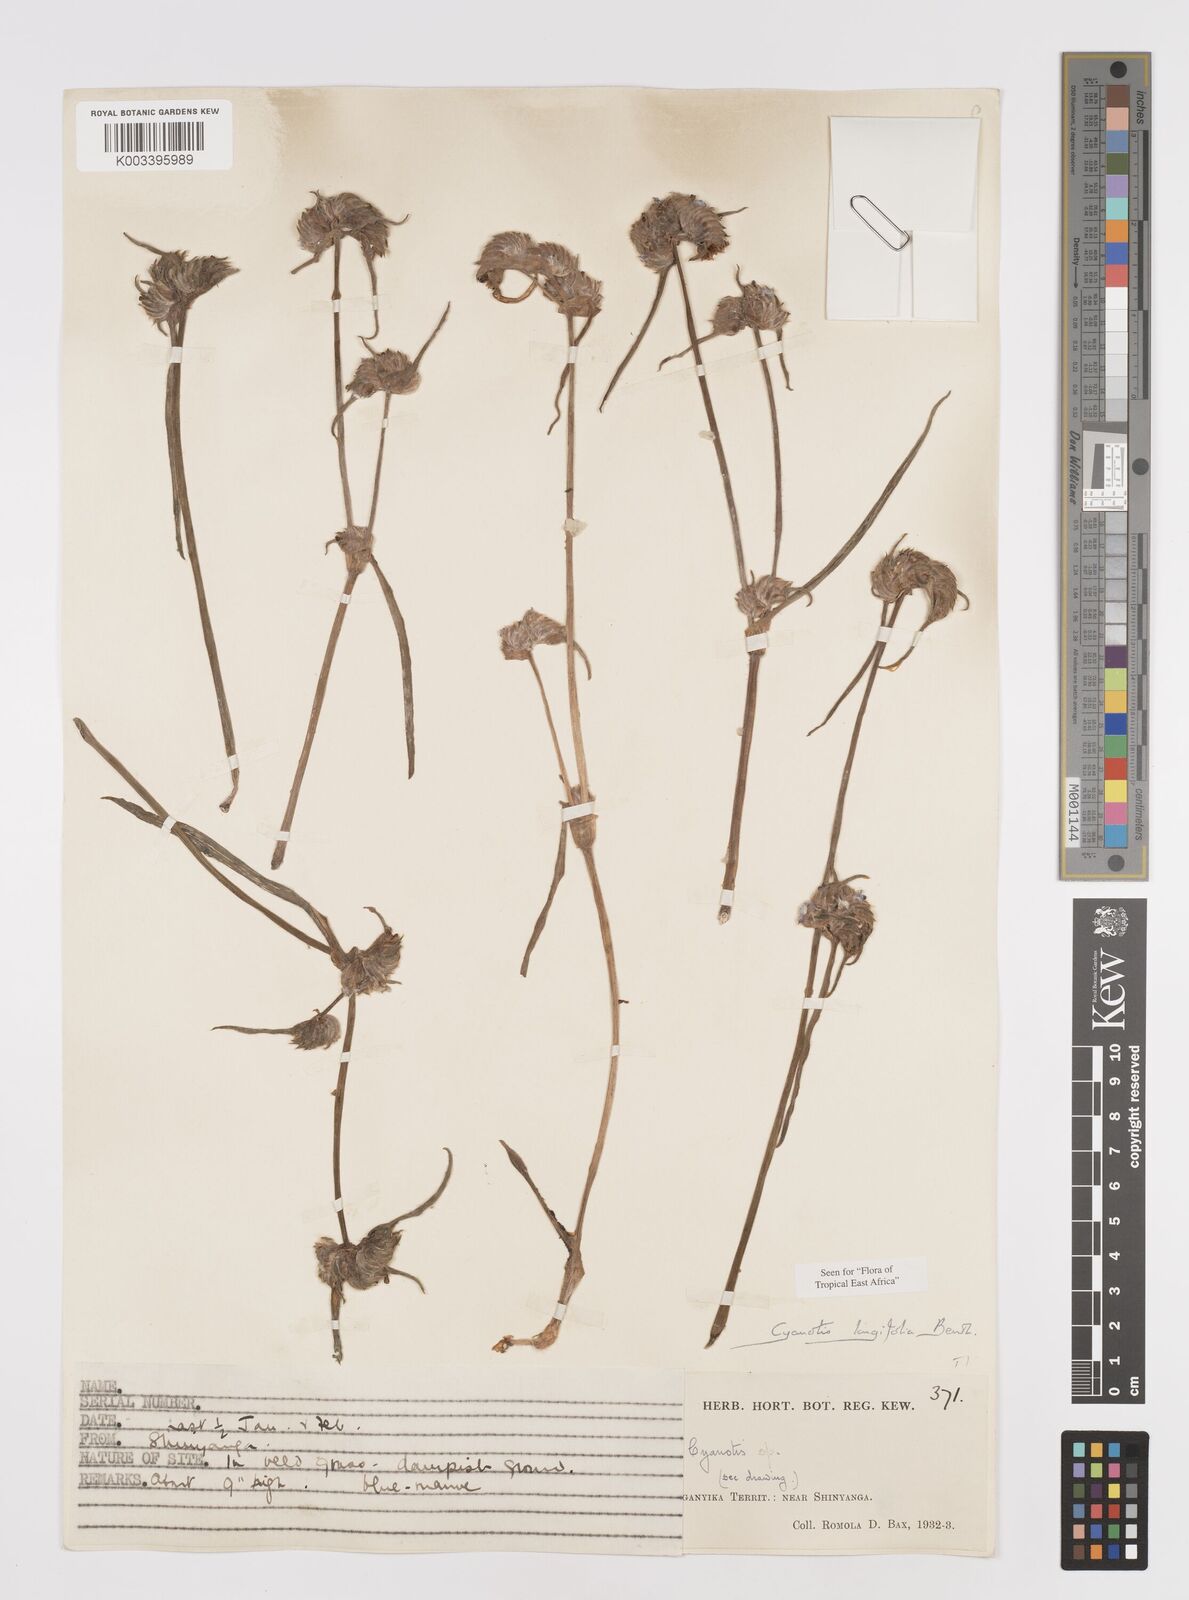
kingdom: Plantae
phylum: Tracheophyta
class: Liliopsida
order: Commelinales
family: Commelinaceae
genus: Cyanotis
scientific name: Cyanotis longifolia
